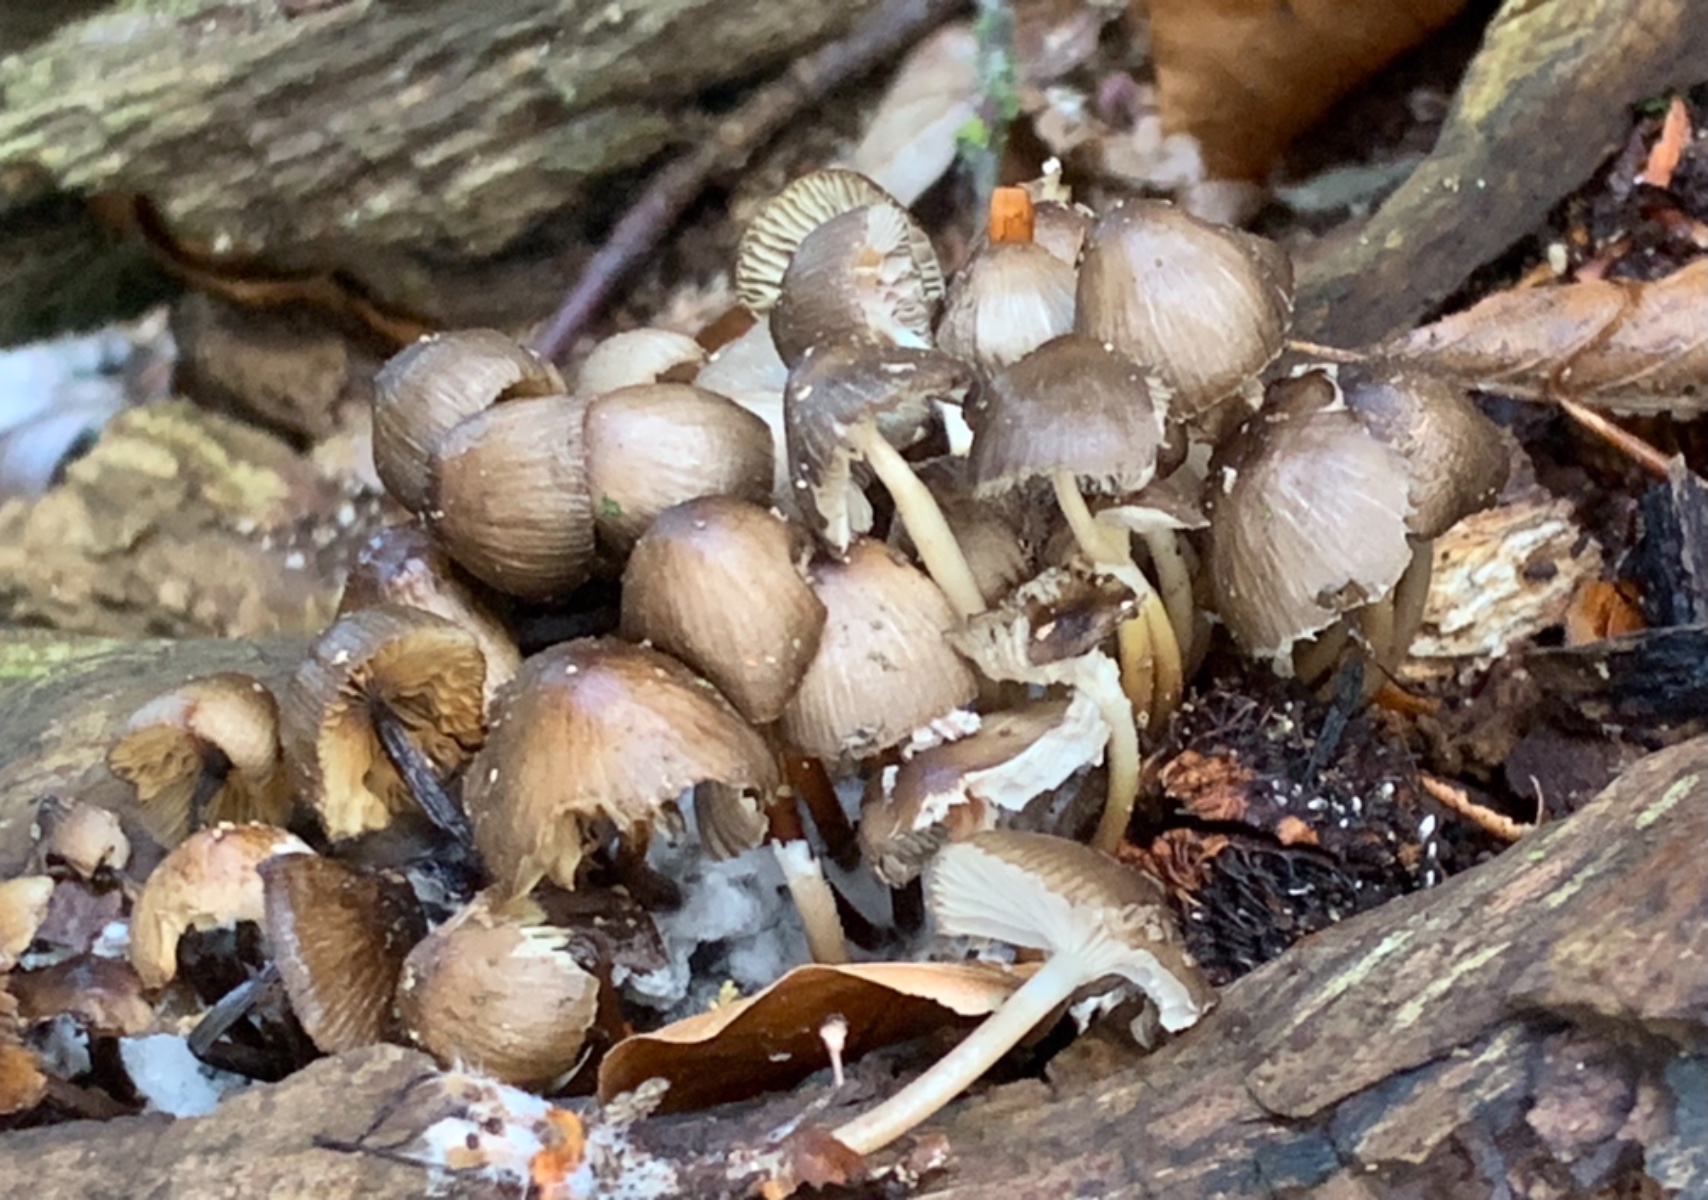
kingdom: Fungi
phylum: Basidiomycota
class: Agaricomycetes
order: Agaricales
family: Mycenaceae
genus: Mycena
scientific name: Mycena tintinnabulum
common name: vinter-huesvamp
